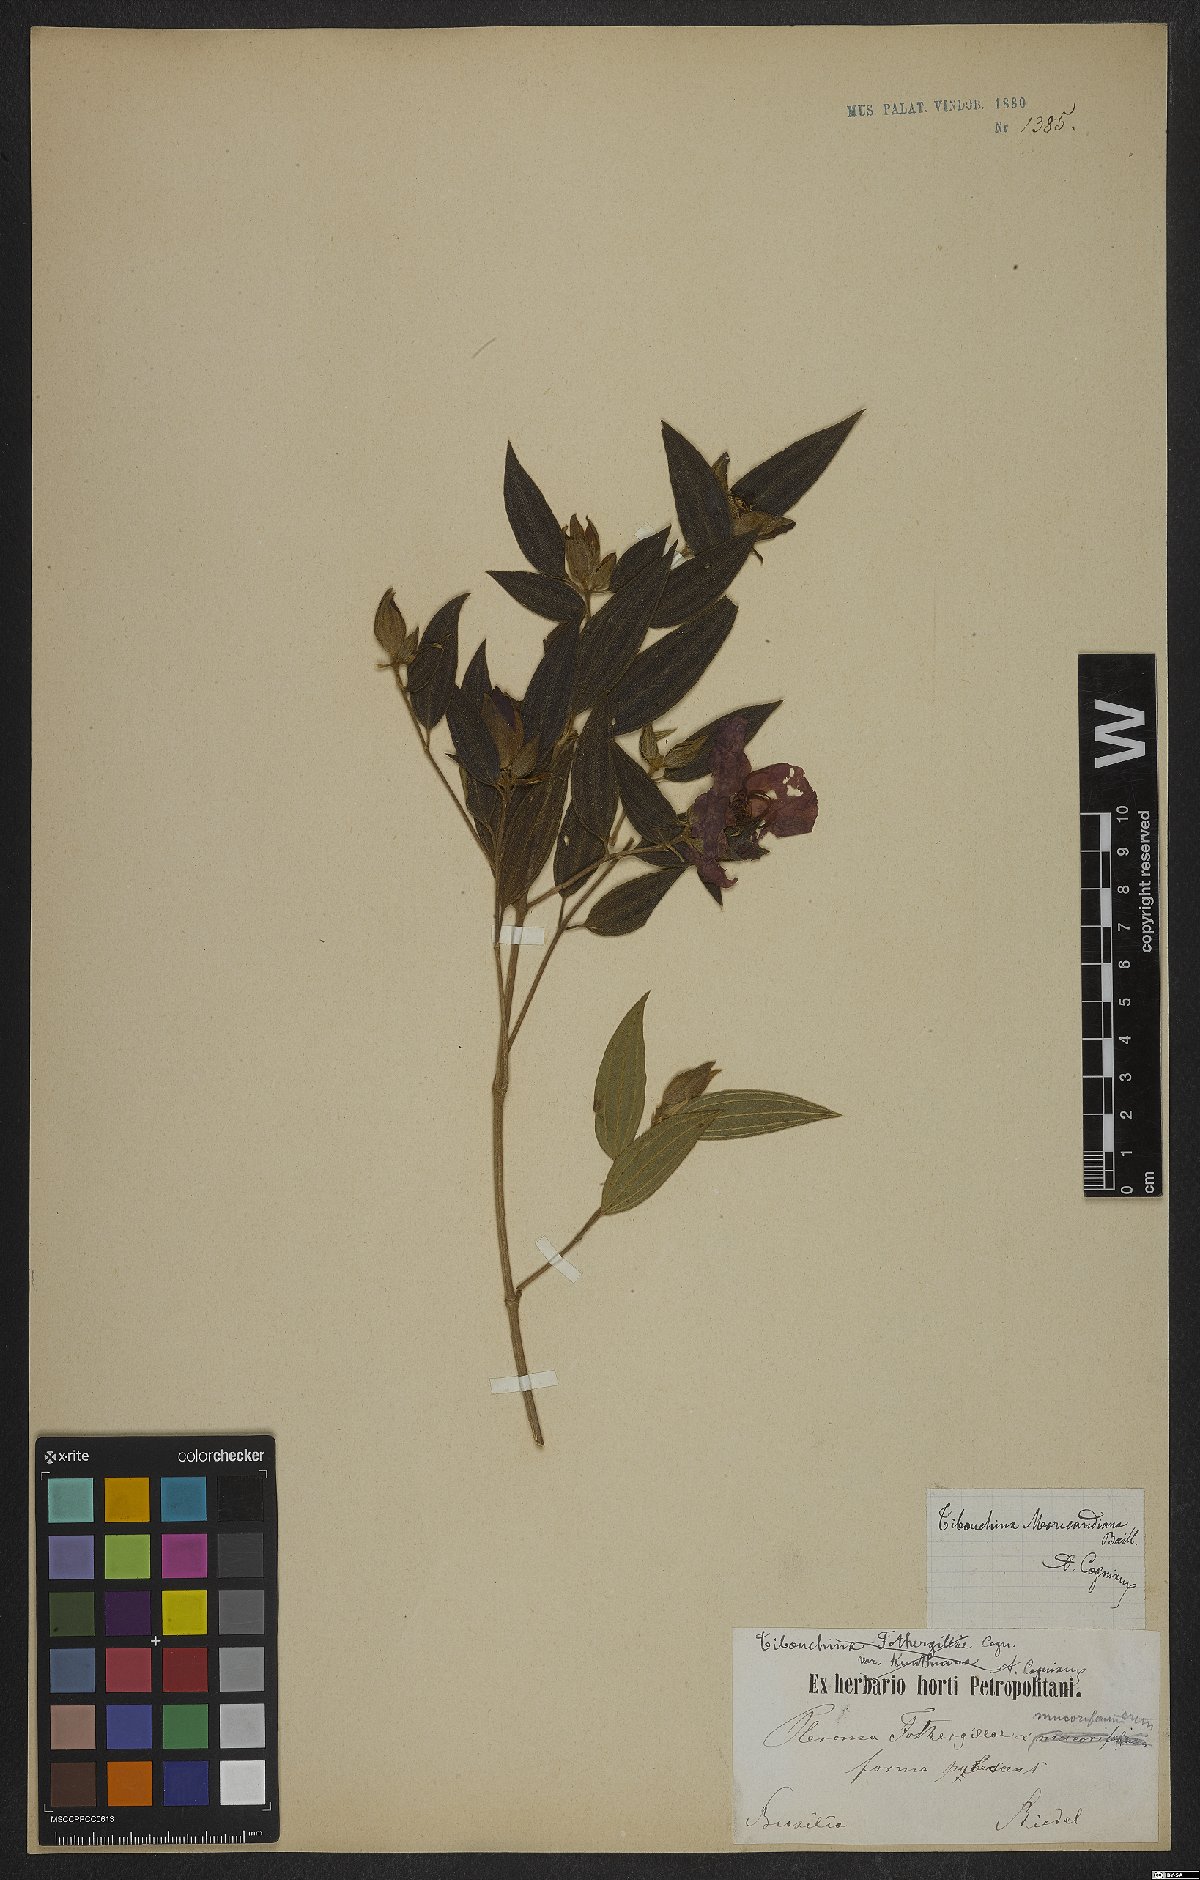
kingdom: Plantae
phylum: Tracheophyta
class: Magnoliopsida
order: Myrtales
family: Melastomataceae
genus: Pleroma
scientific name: Pleroma gaudichaudianum
